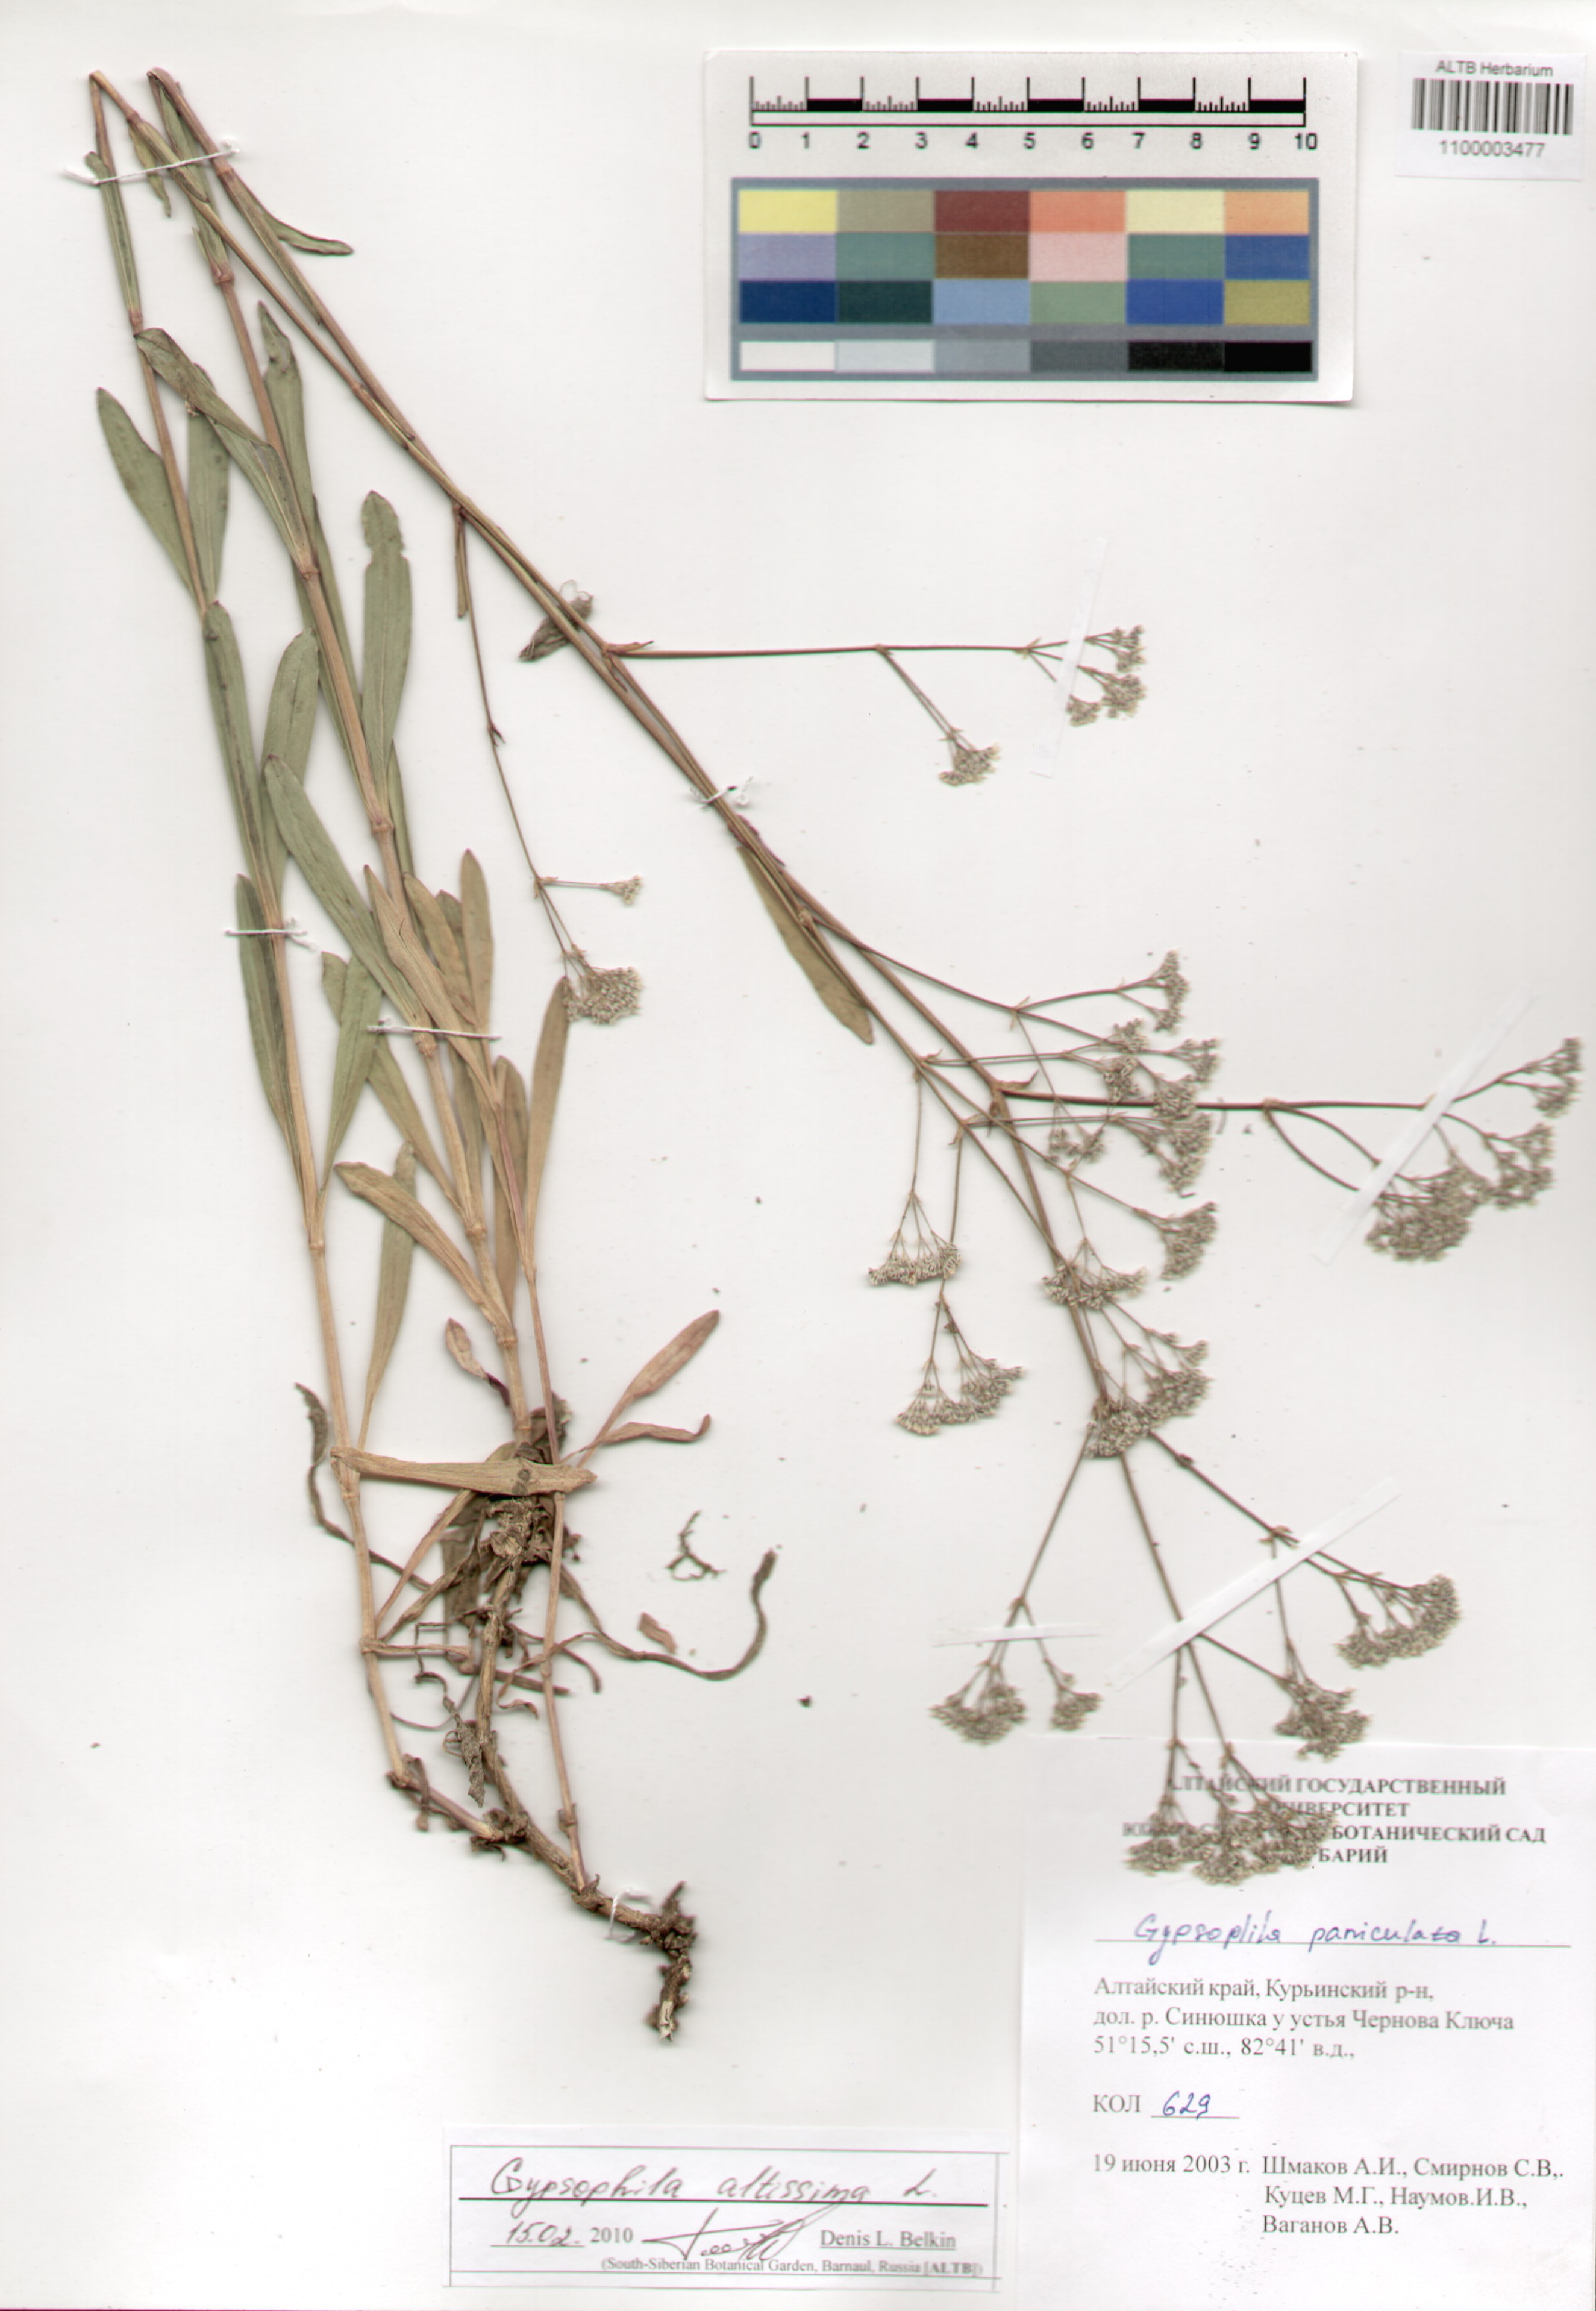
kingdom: Plantae
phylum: Tracheophyta
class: Magnoliopsida
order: Caryophyllales
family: Caryophyllaceae
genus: Gypsophila
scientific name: Gypsophila altissima
